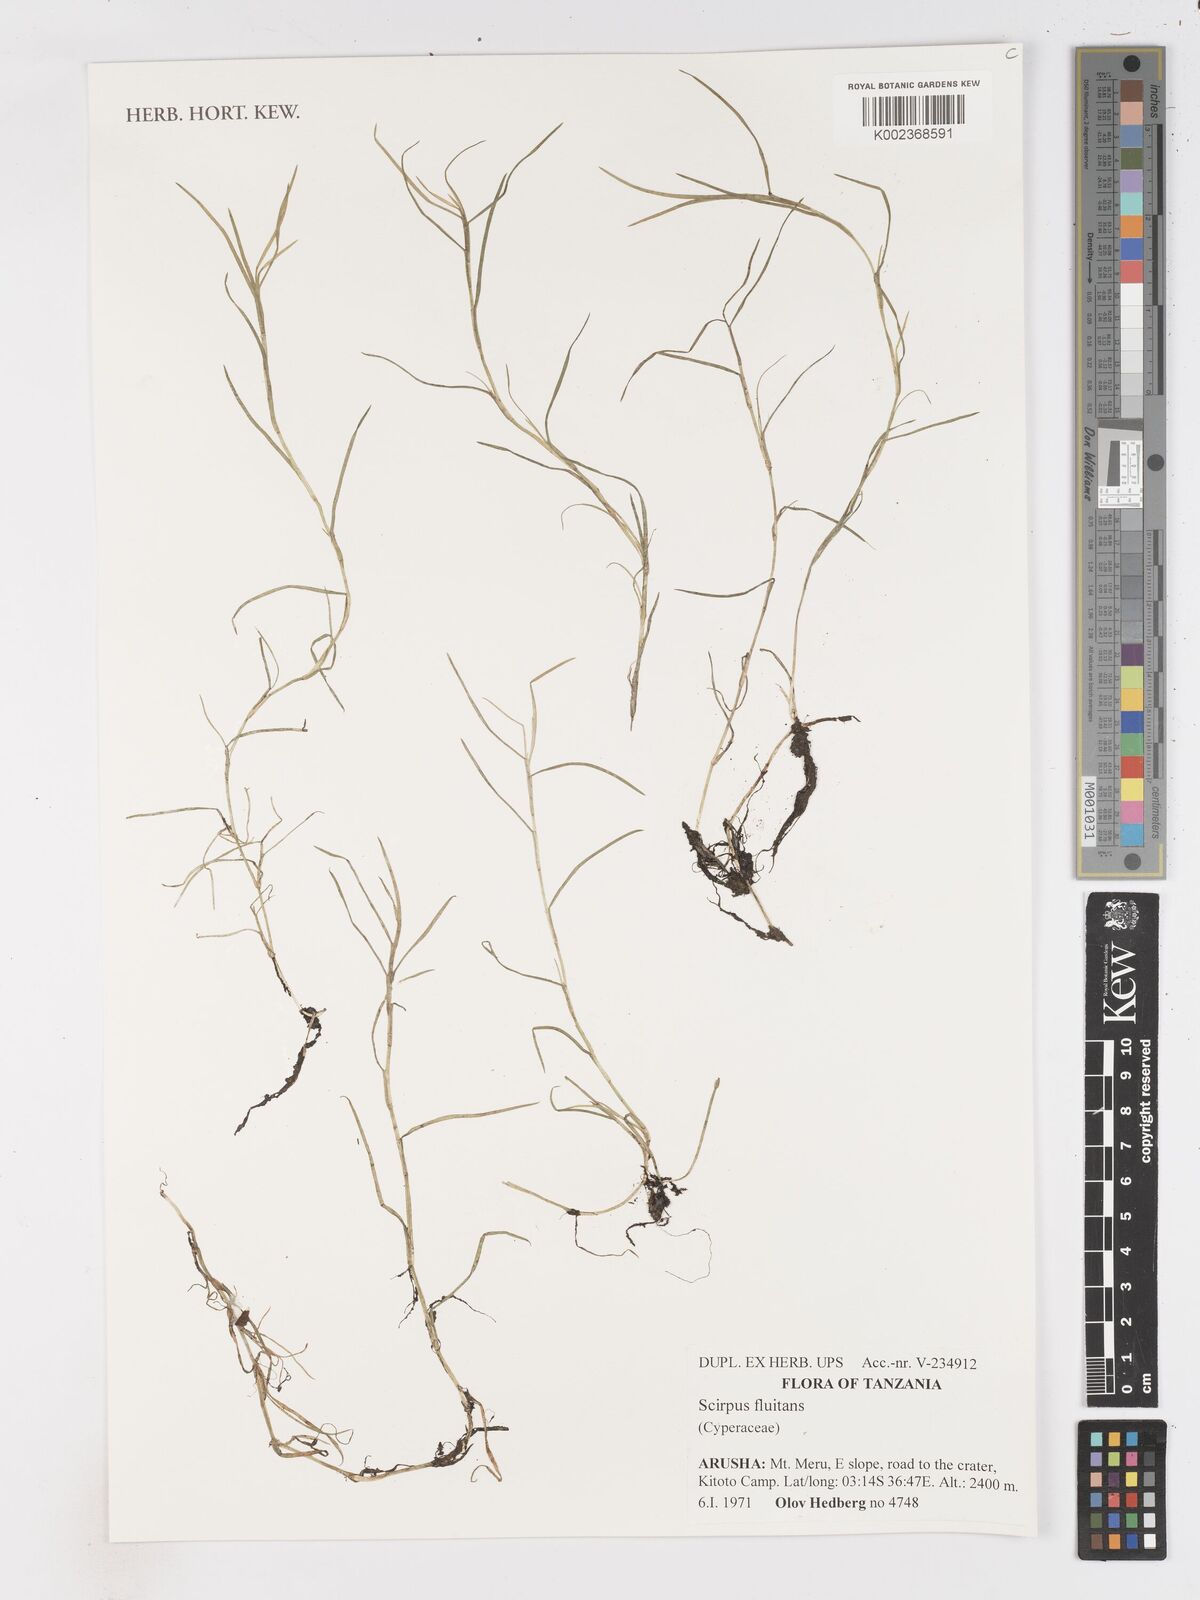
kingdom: Plantae
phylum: Tracheophyta
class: Liliopsida
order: Poales
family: Cyperaceae
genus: Isolepis
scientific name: Isolepis fluitans
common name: Floating club-rush
